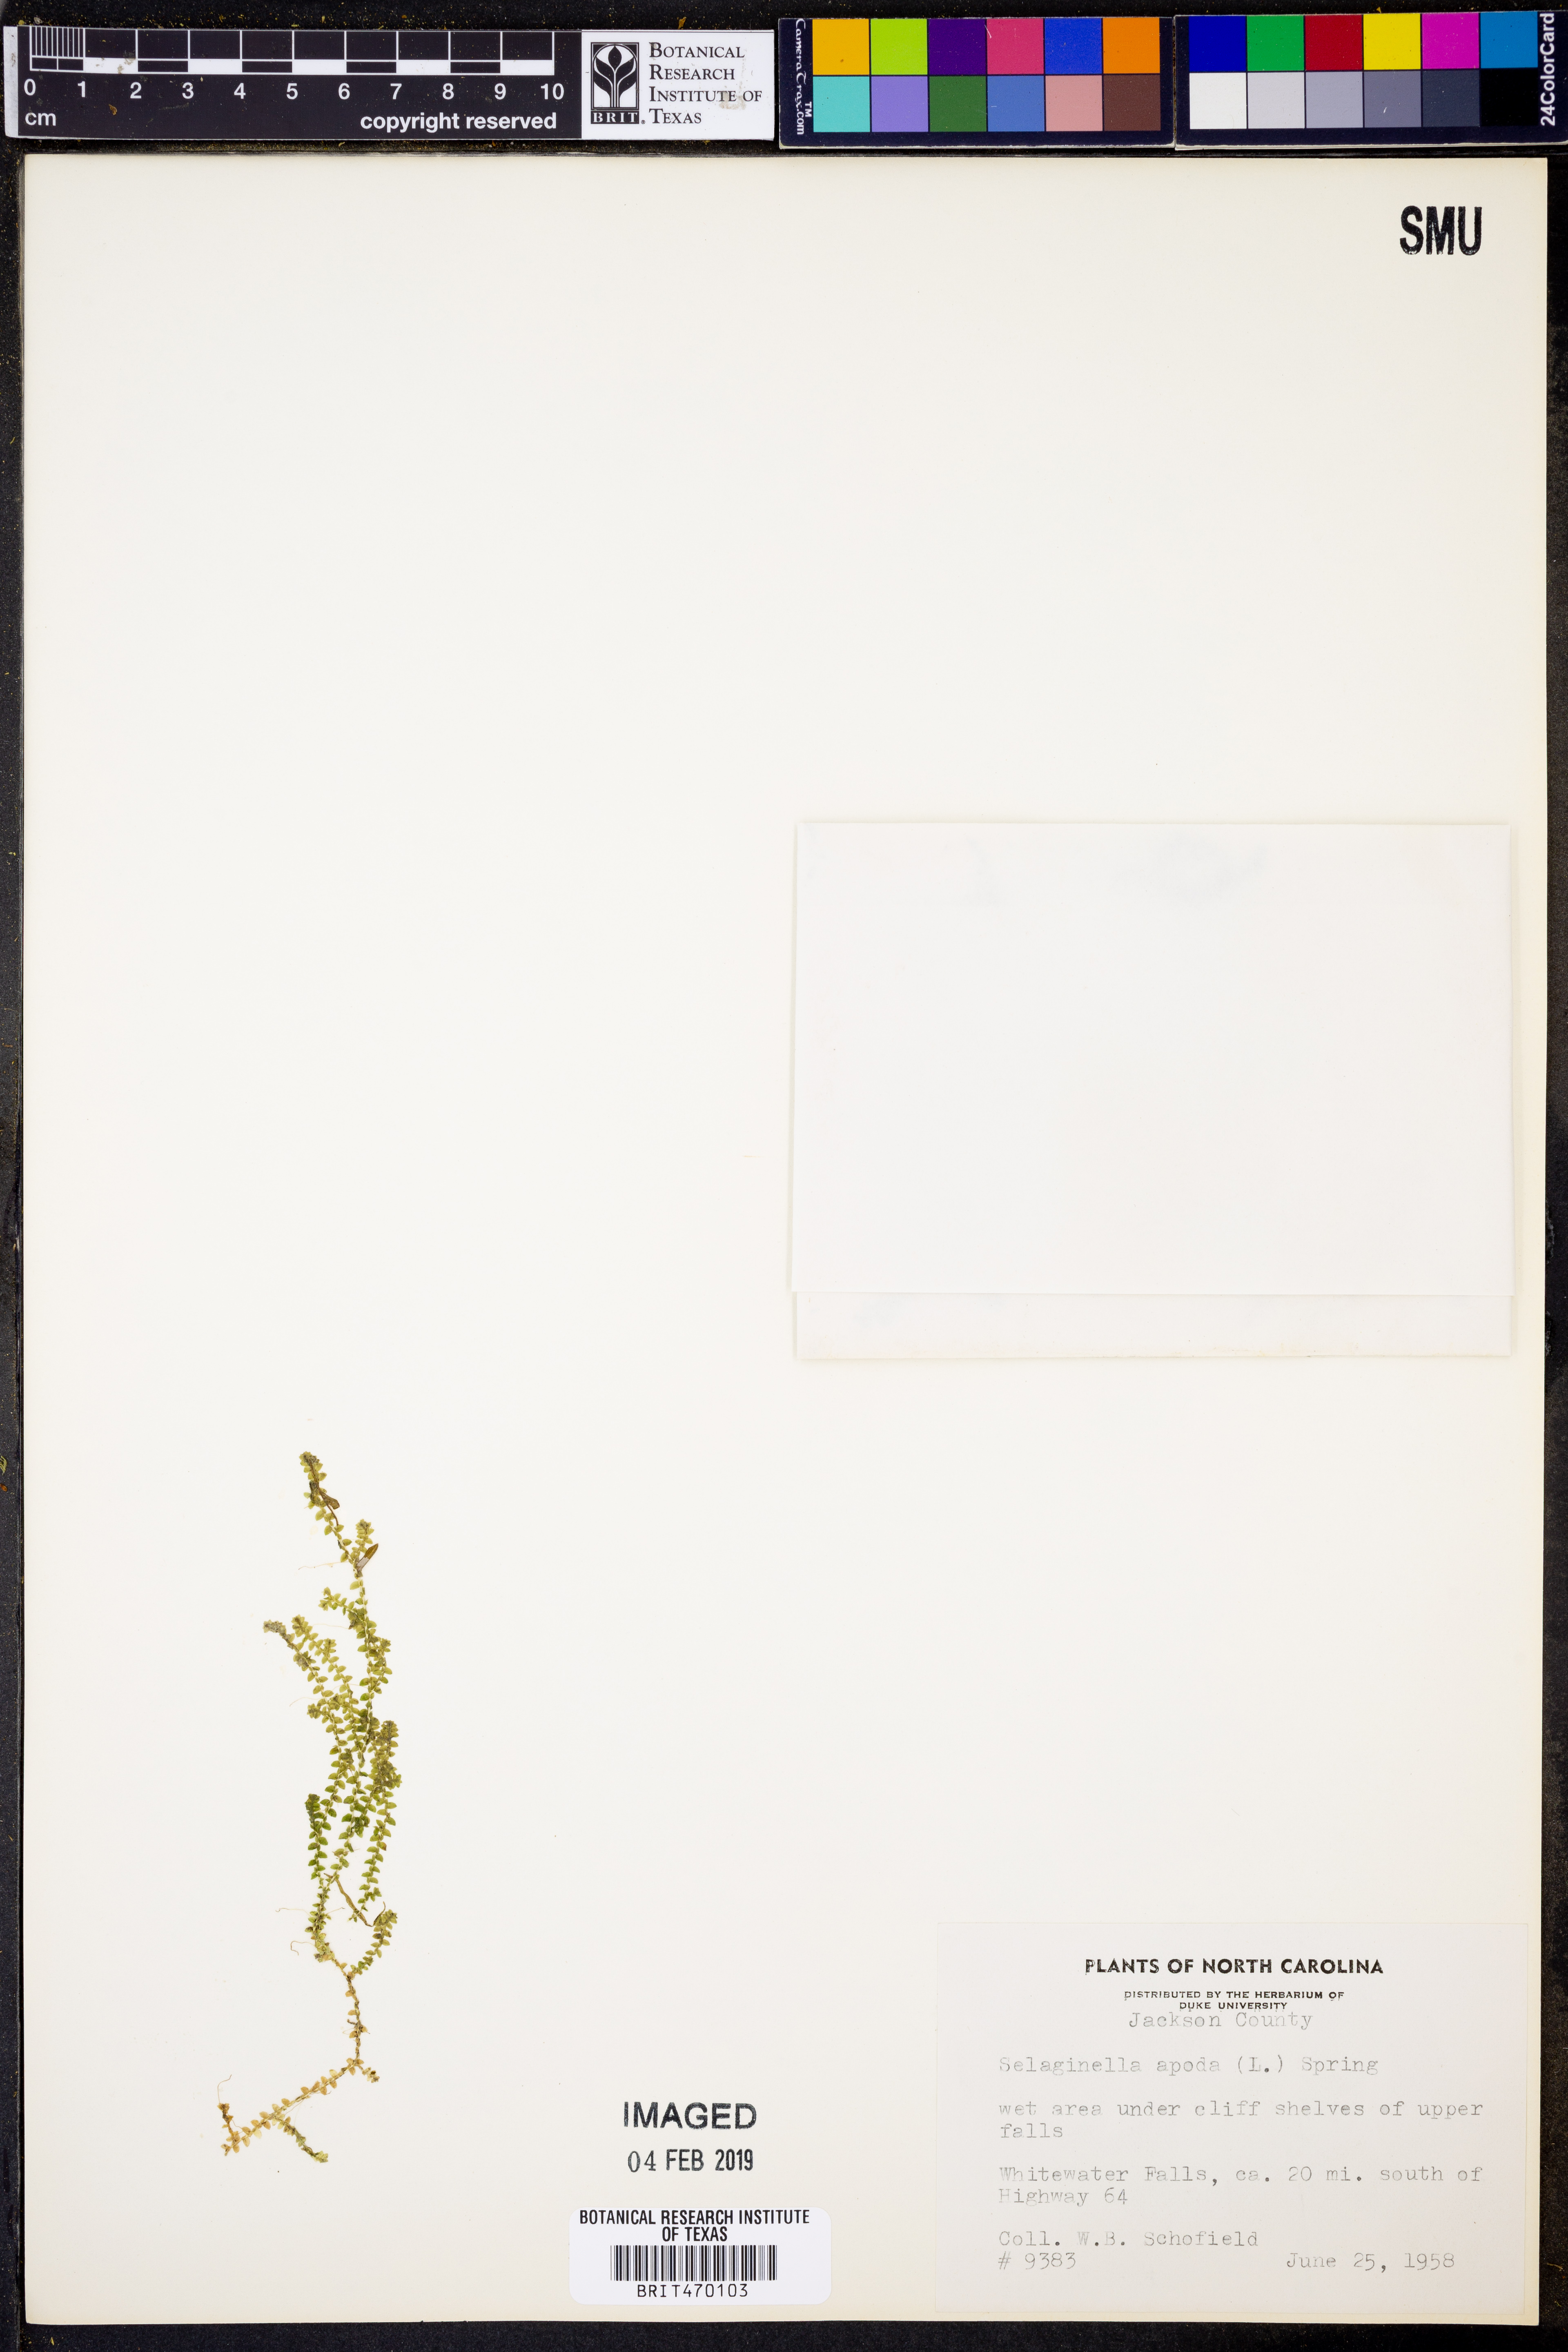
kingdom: Plantae
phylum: Tracheophyta
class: Lycopodiopsida
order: Selaginellales
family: Selaginellaceae
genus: Selaginella
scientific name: Selaginella apoda
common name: Creeping spikemoss
